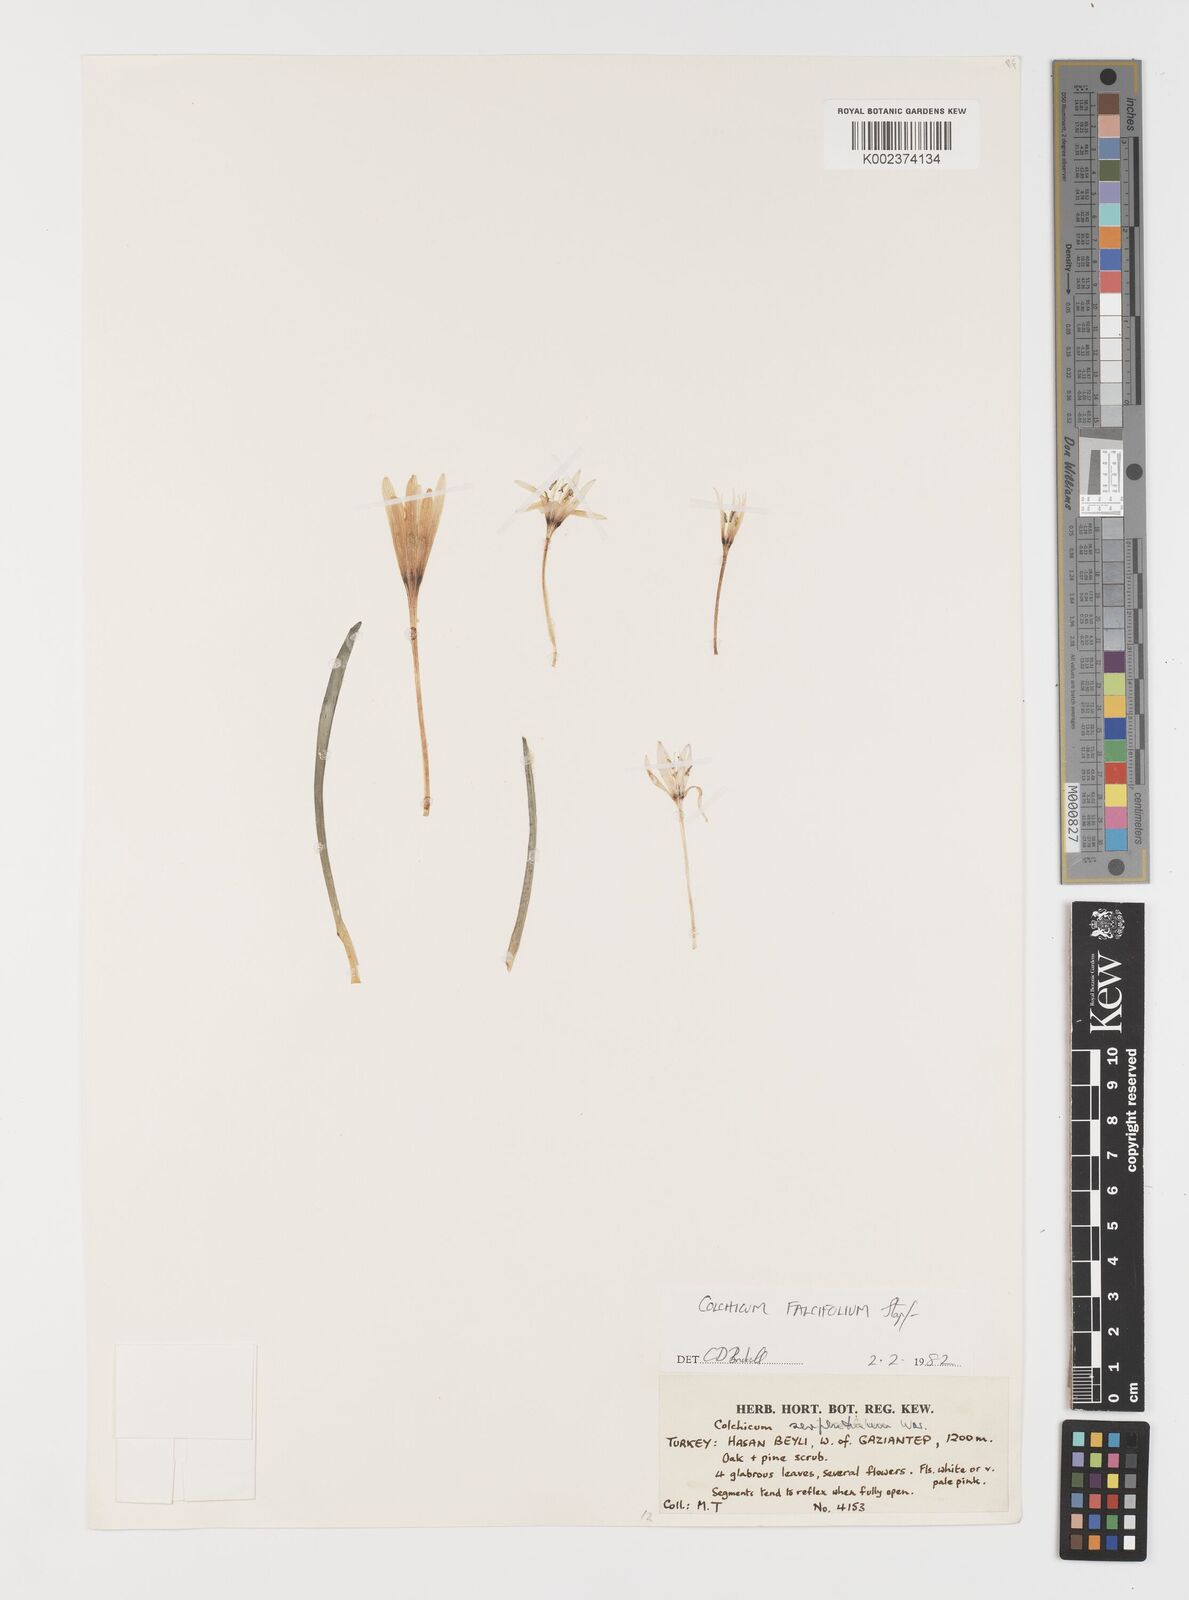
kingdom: Plantae
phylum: Tracheophyta
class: Liliopsida
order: Asparagales
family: Iridaceae
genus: Iris
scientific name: Iris caucasica
